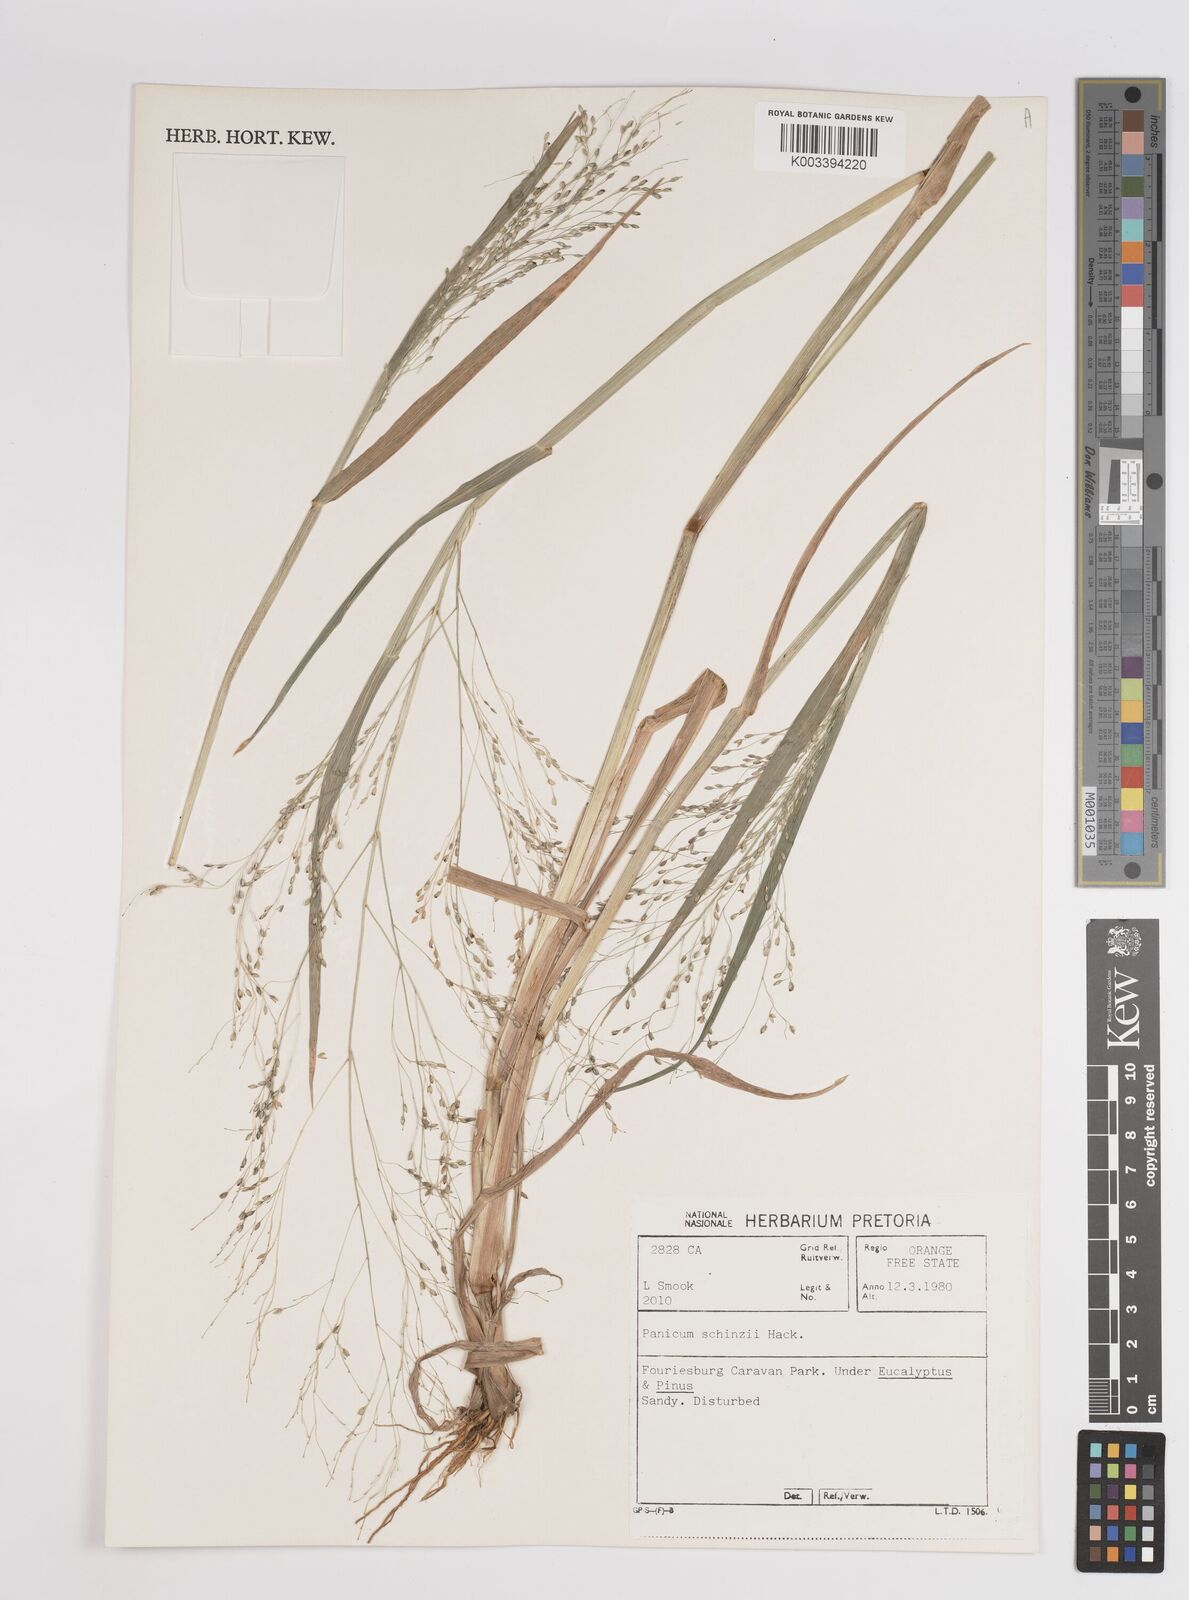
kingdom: Plantae
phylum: Tracheophyta
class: Liliopsida
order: Poales
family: Poaceae
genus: Panicum
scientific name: Panicum schinzii
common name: Sweet grass
